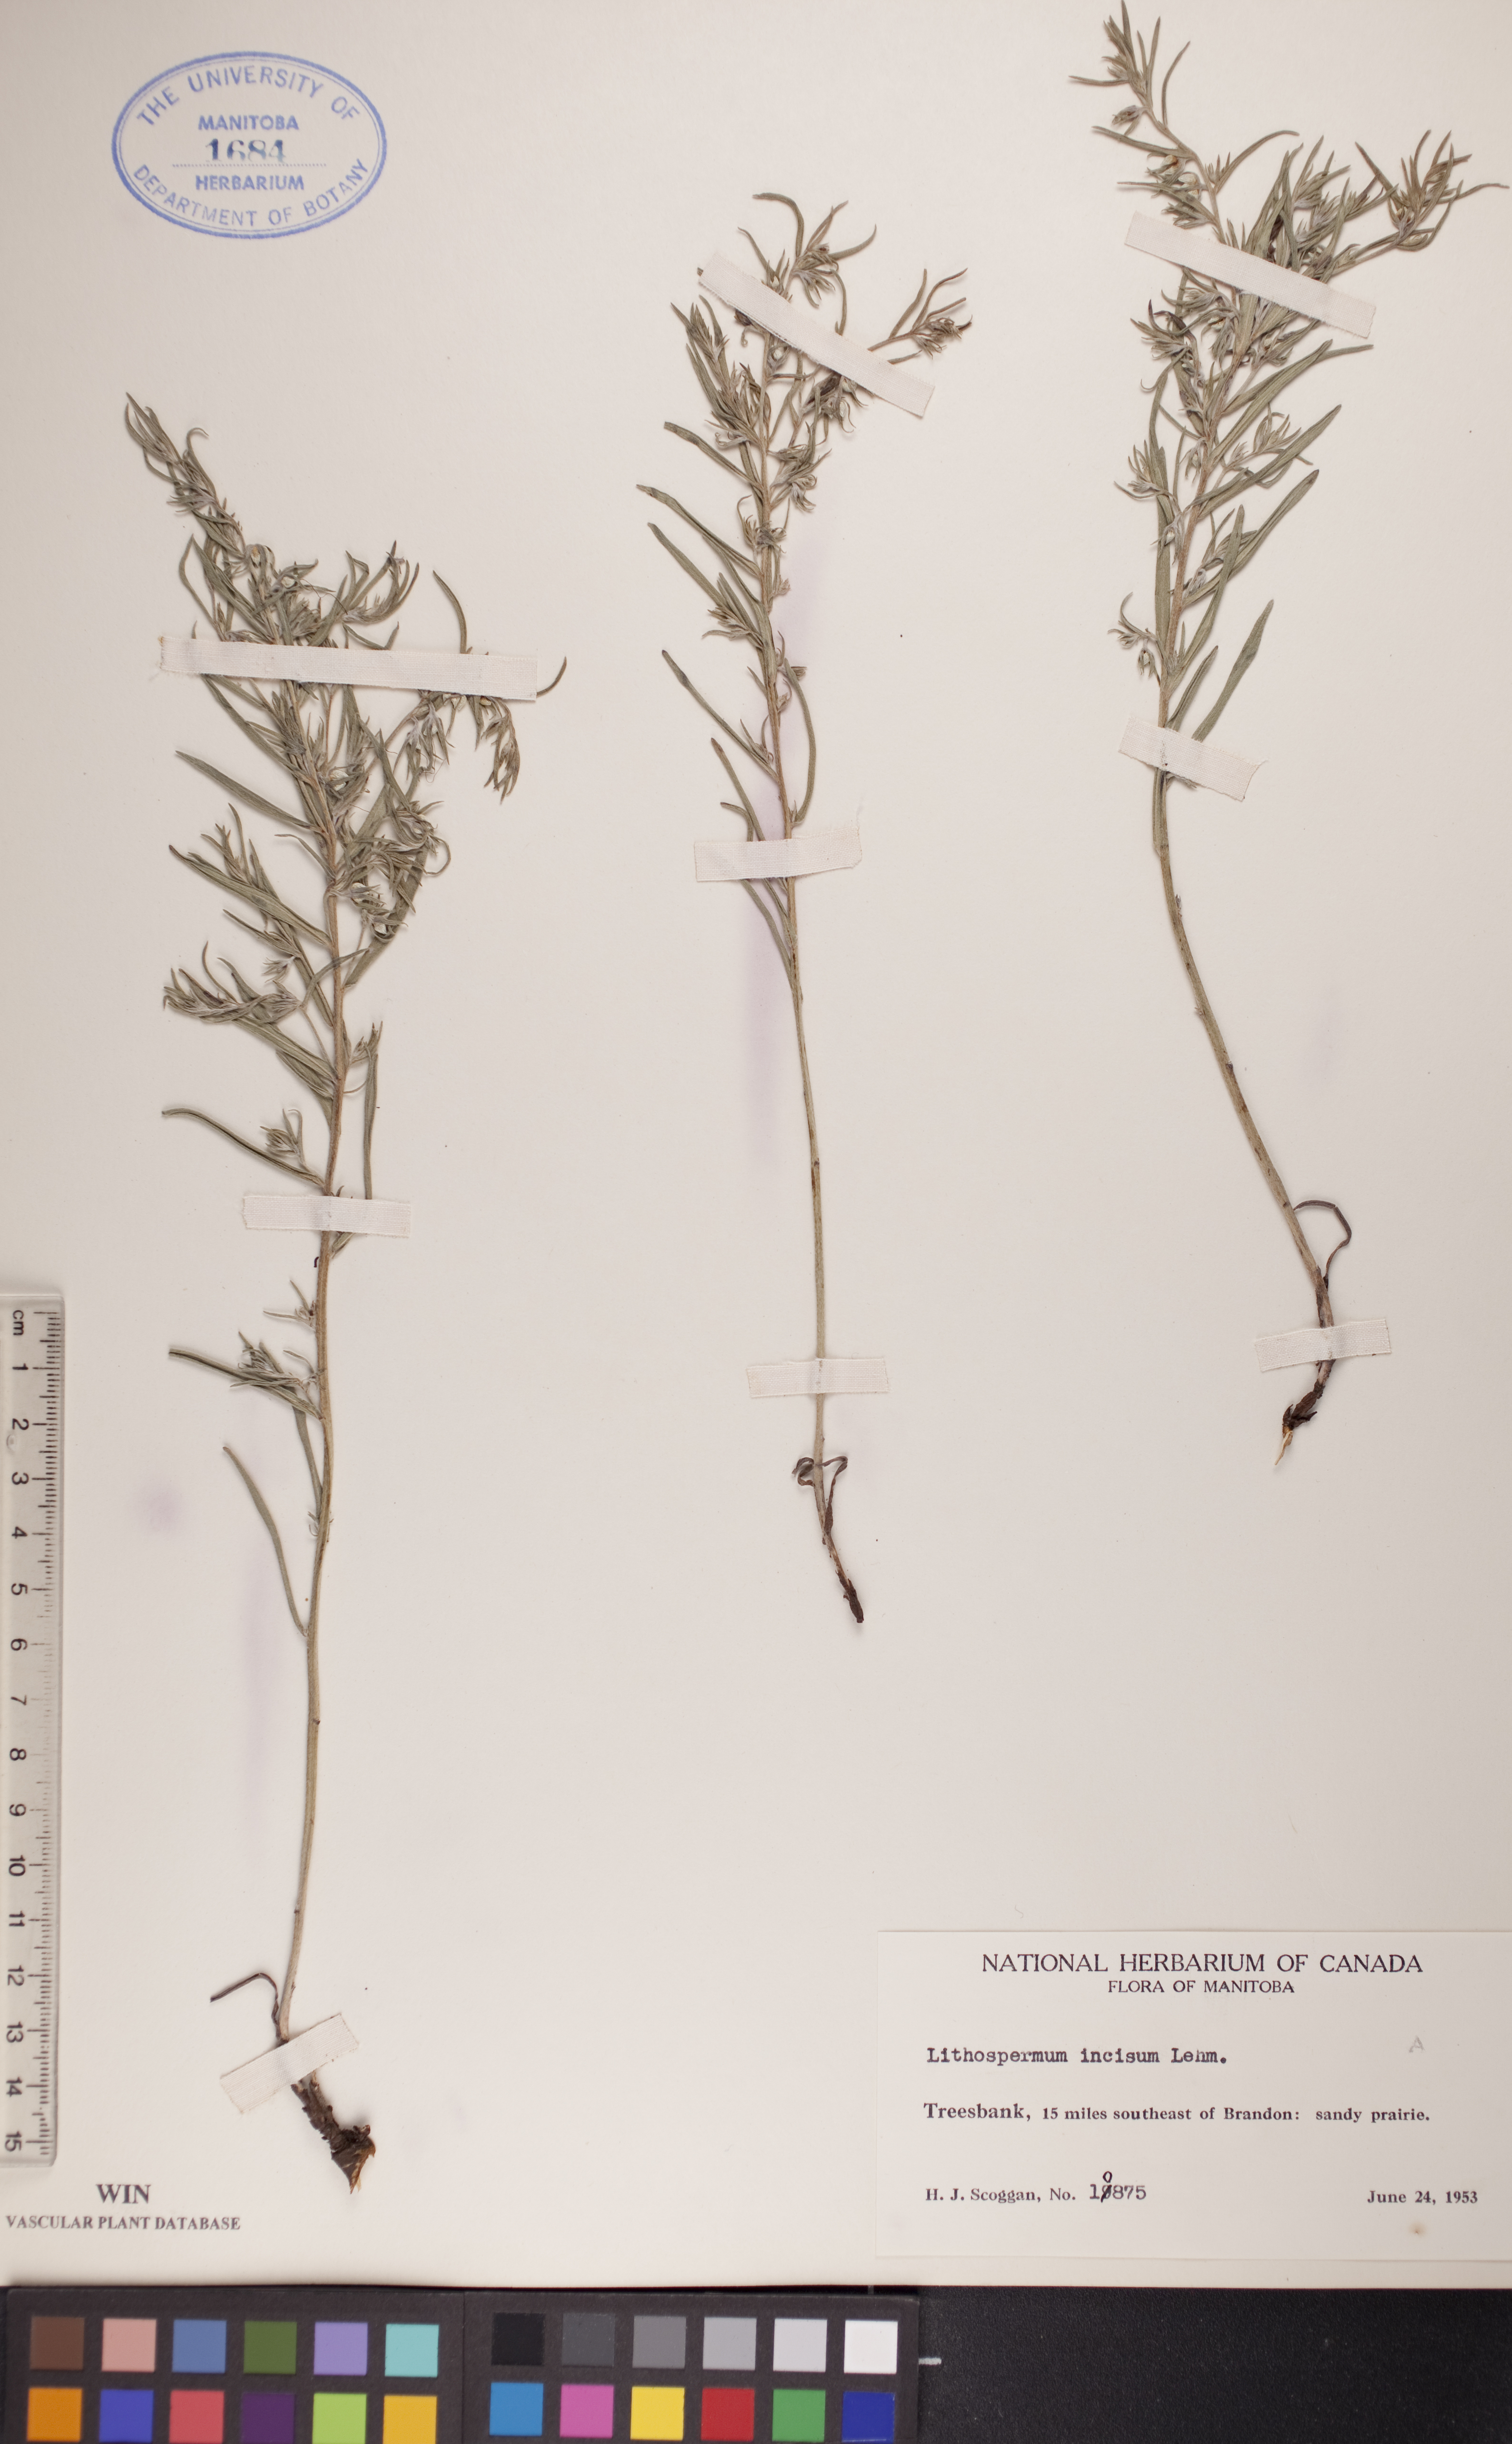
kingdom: Plantae
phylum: Tracheophyta
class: Magnoliopsida
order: Boraginales
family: Boraginaceae
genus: Lithospermum
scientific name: Lithospermum incisum
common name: Fringed gromwell
